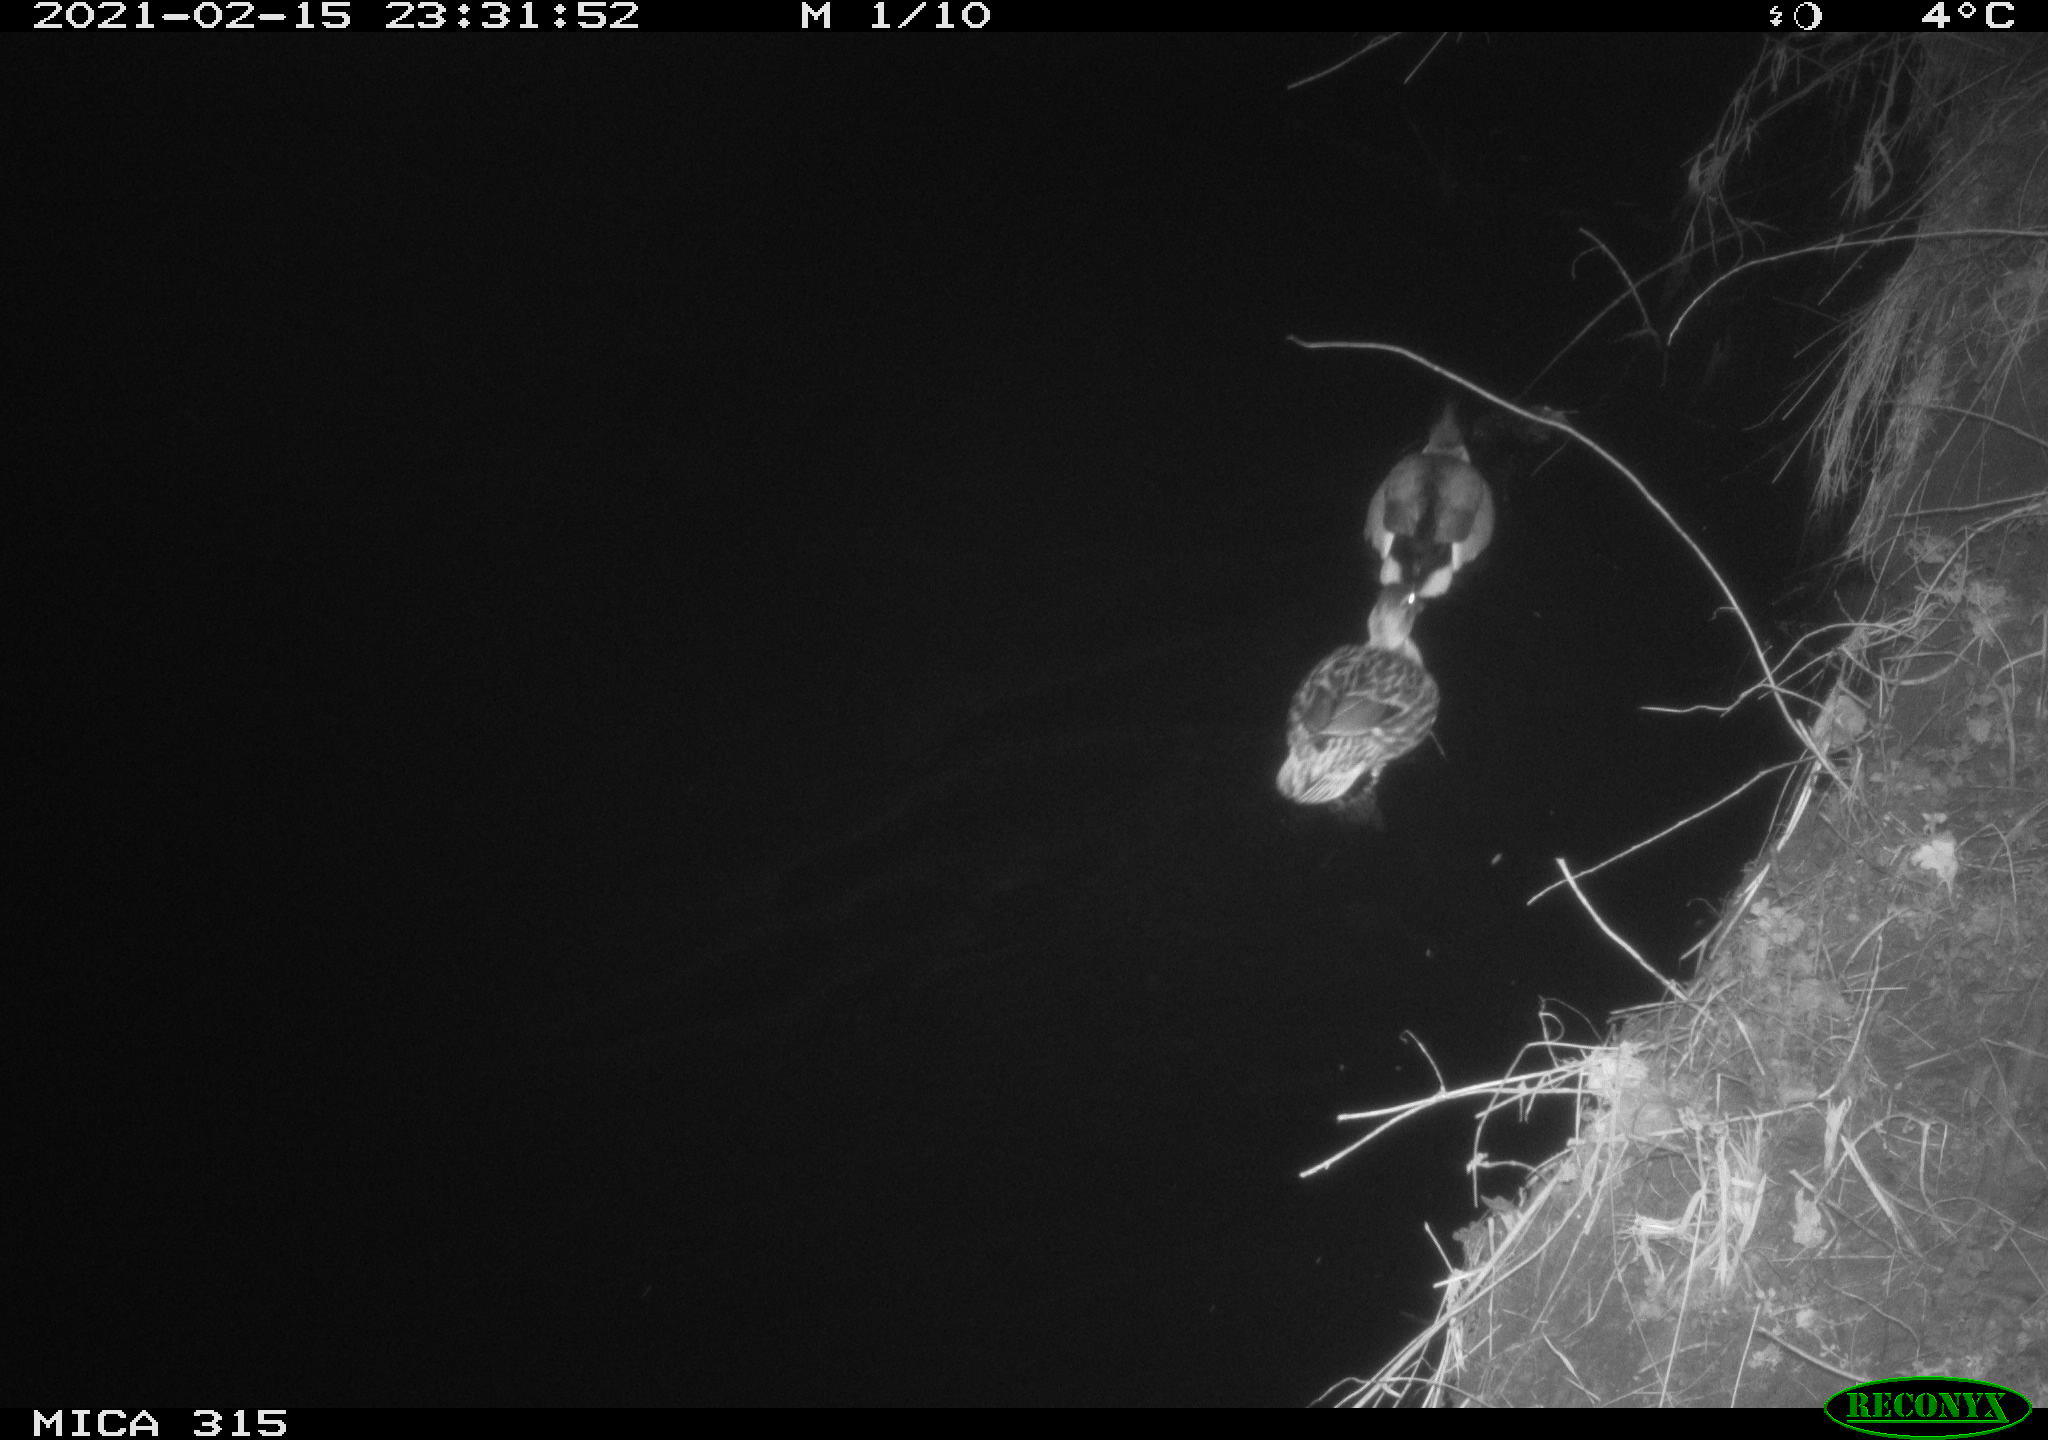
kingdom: Animalia
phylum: Chordata
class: Aves
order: Anseriformes
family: Anatidae
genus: Anas
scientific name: Anas platyrhynchos
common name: Mallard
